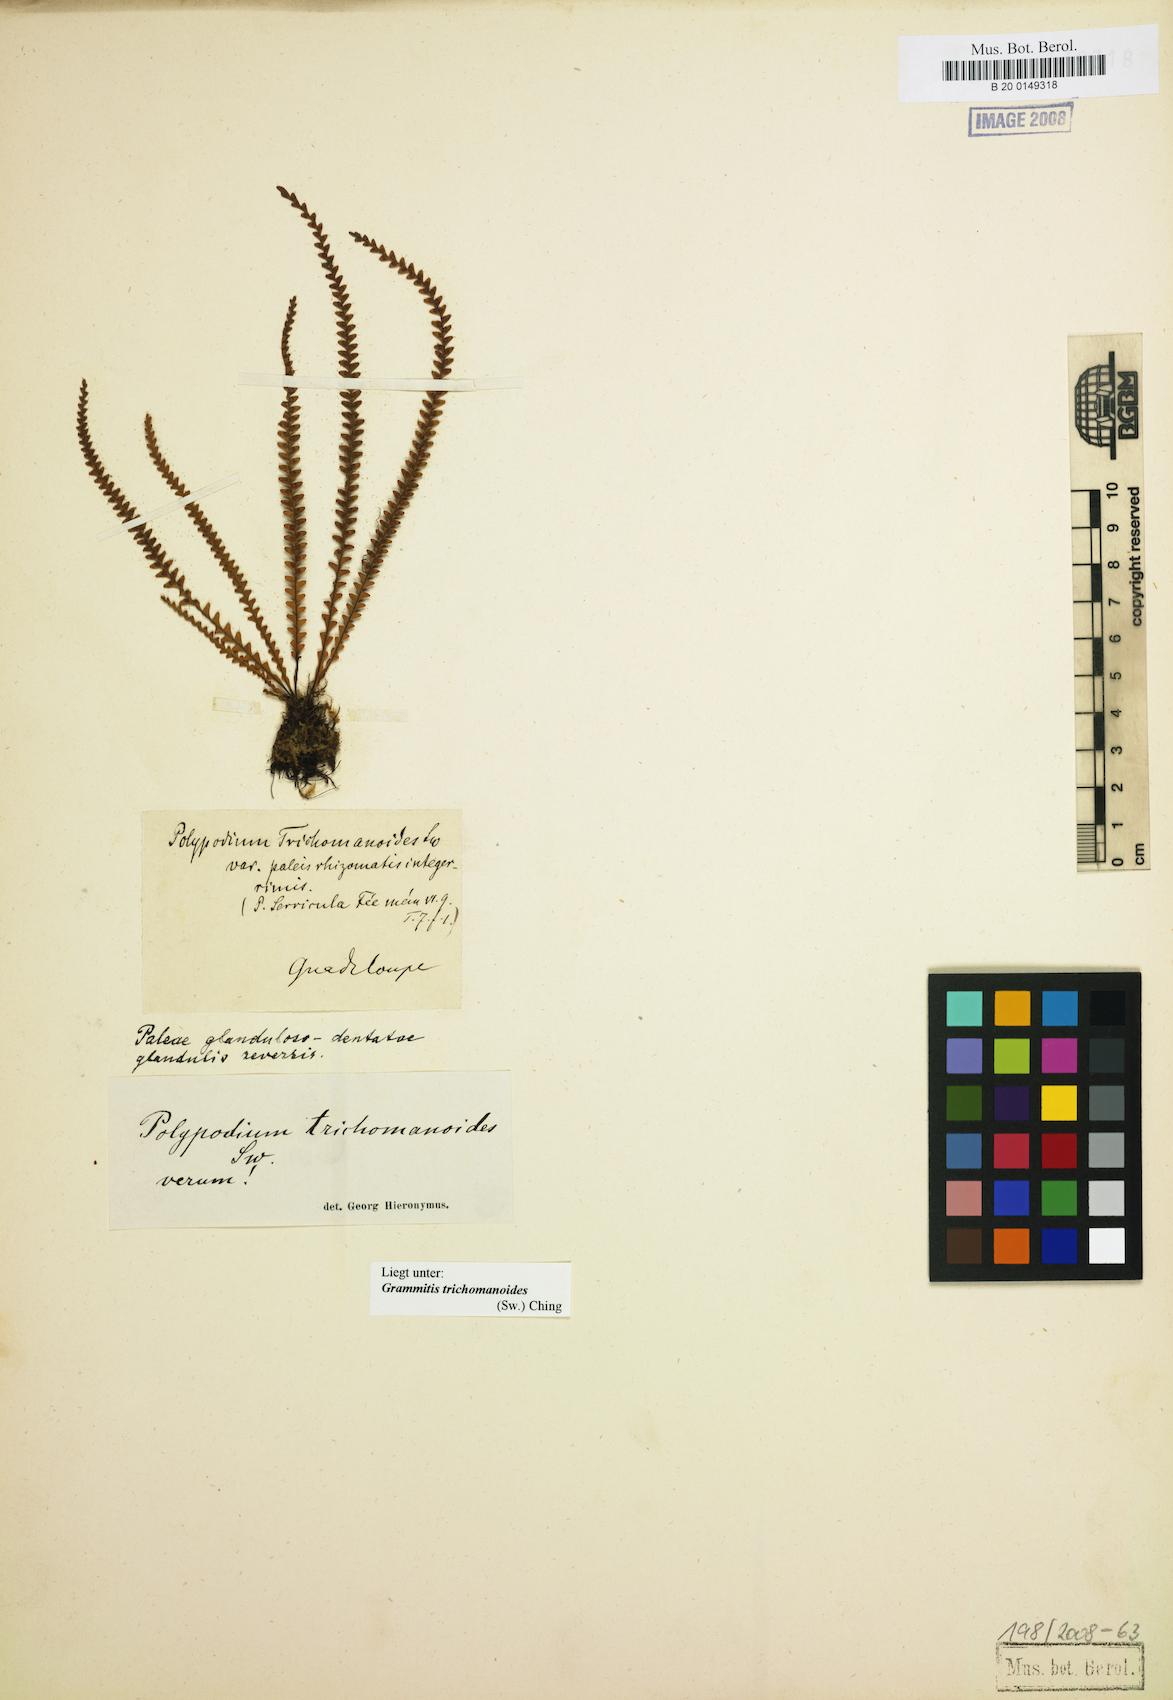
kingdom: Plantae
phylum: Tracheophyta
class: Polypodiopsida
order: Polypodiales
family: Polypodiaceae
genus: Moranopteris
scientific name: Moranopteris serricula
